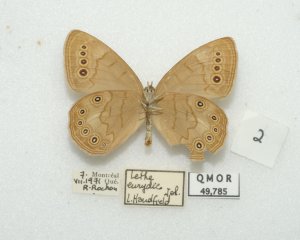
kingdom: Animalia
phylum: Arthropoda
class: Insecta
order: Lepidoptera
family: Nymphalidae
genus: Lethe
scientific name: Lethe eurydice
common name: Eyed Brown
